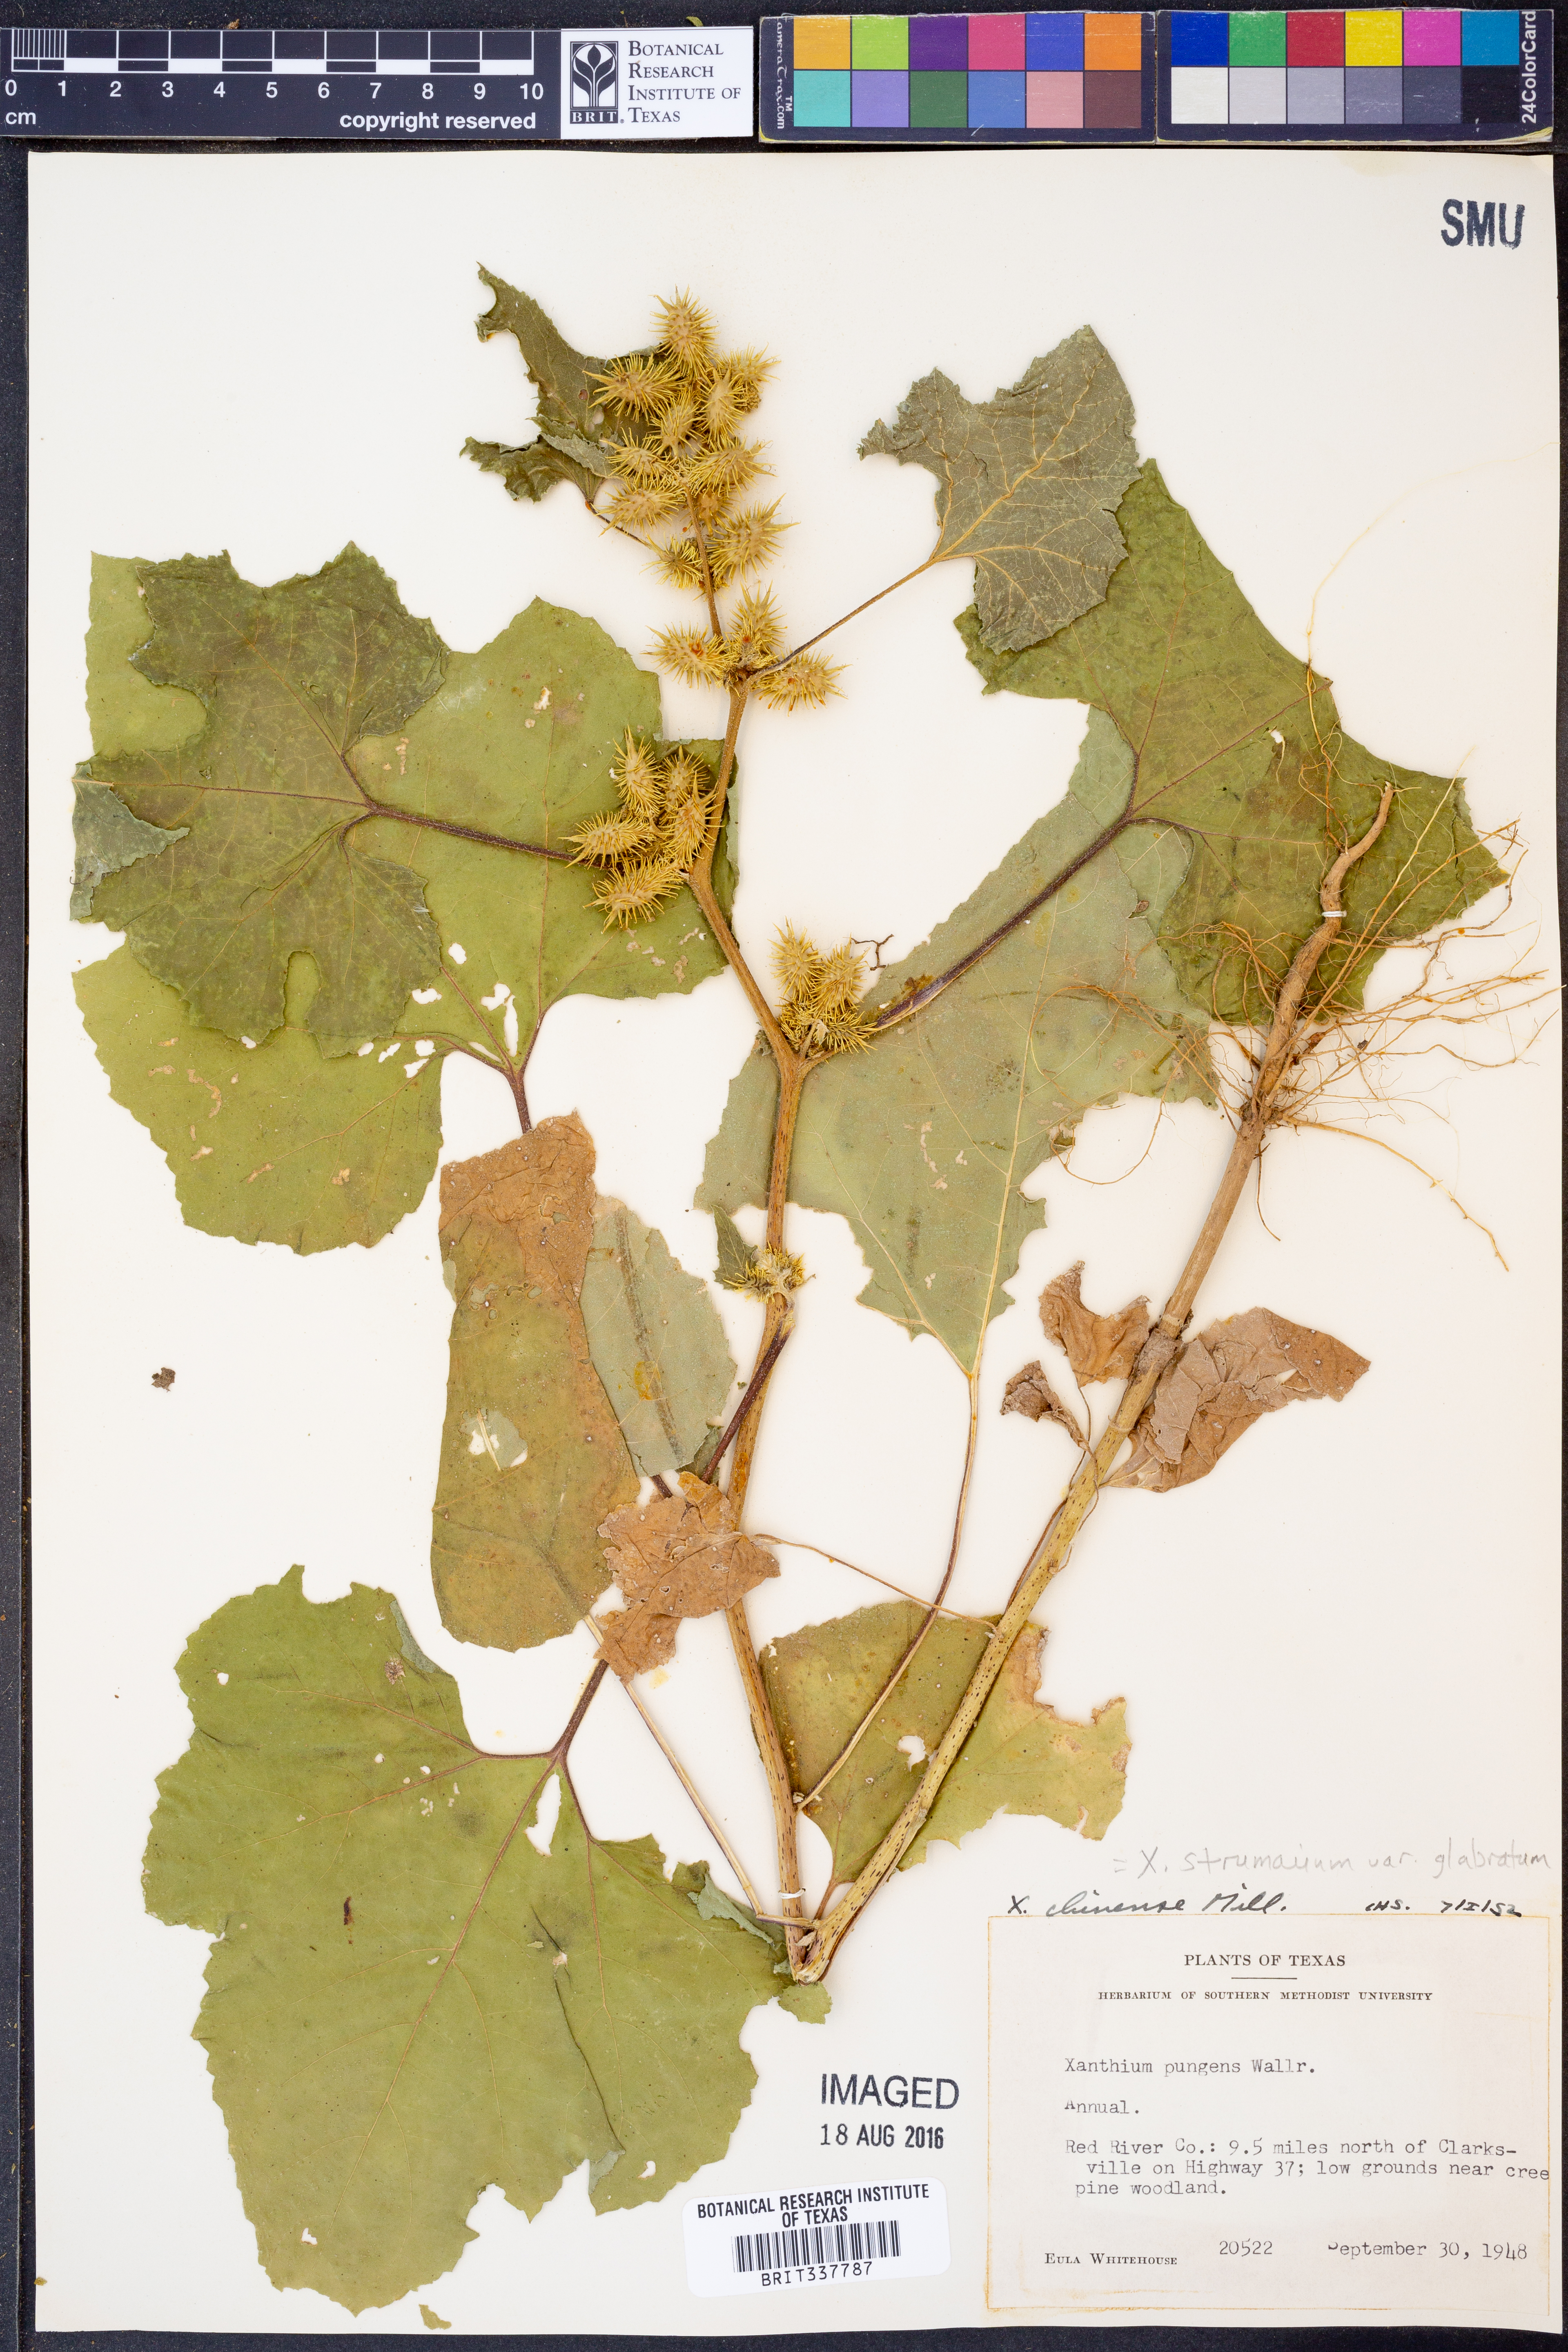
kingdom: Plantae
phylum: Tracheophyta
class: Magnoliopsida
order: Asterales
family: Asteraceae
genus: Xanthium
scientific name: Xanthium occidentale
